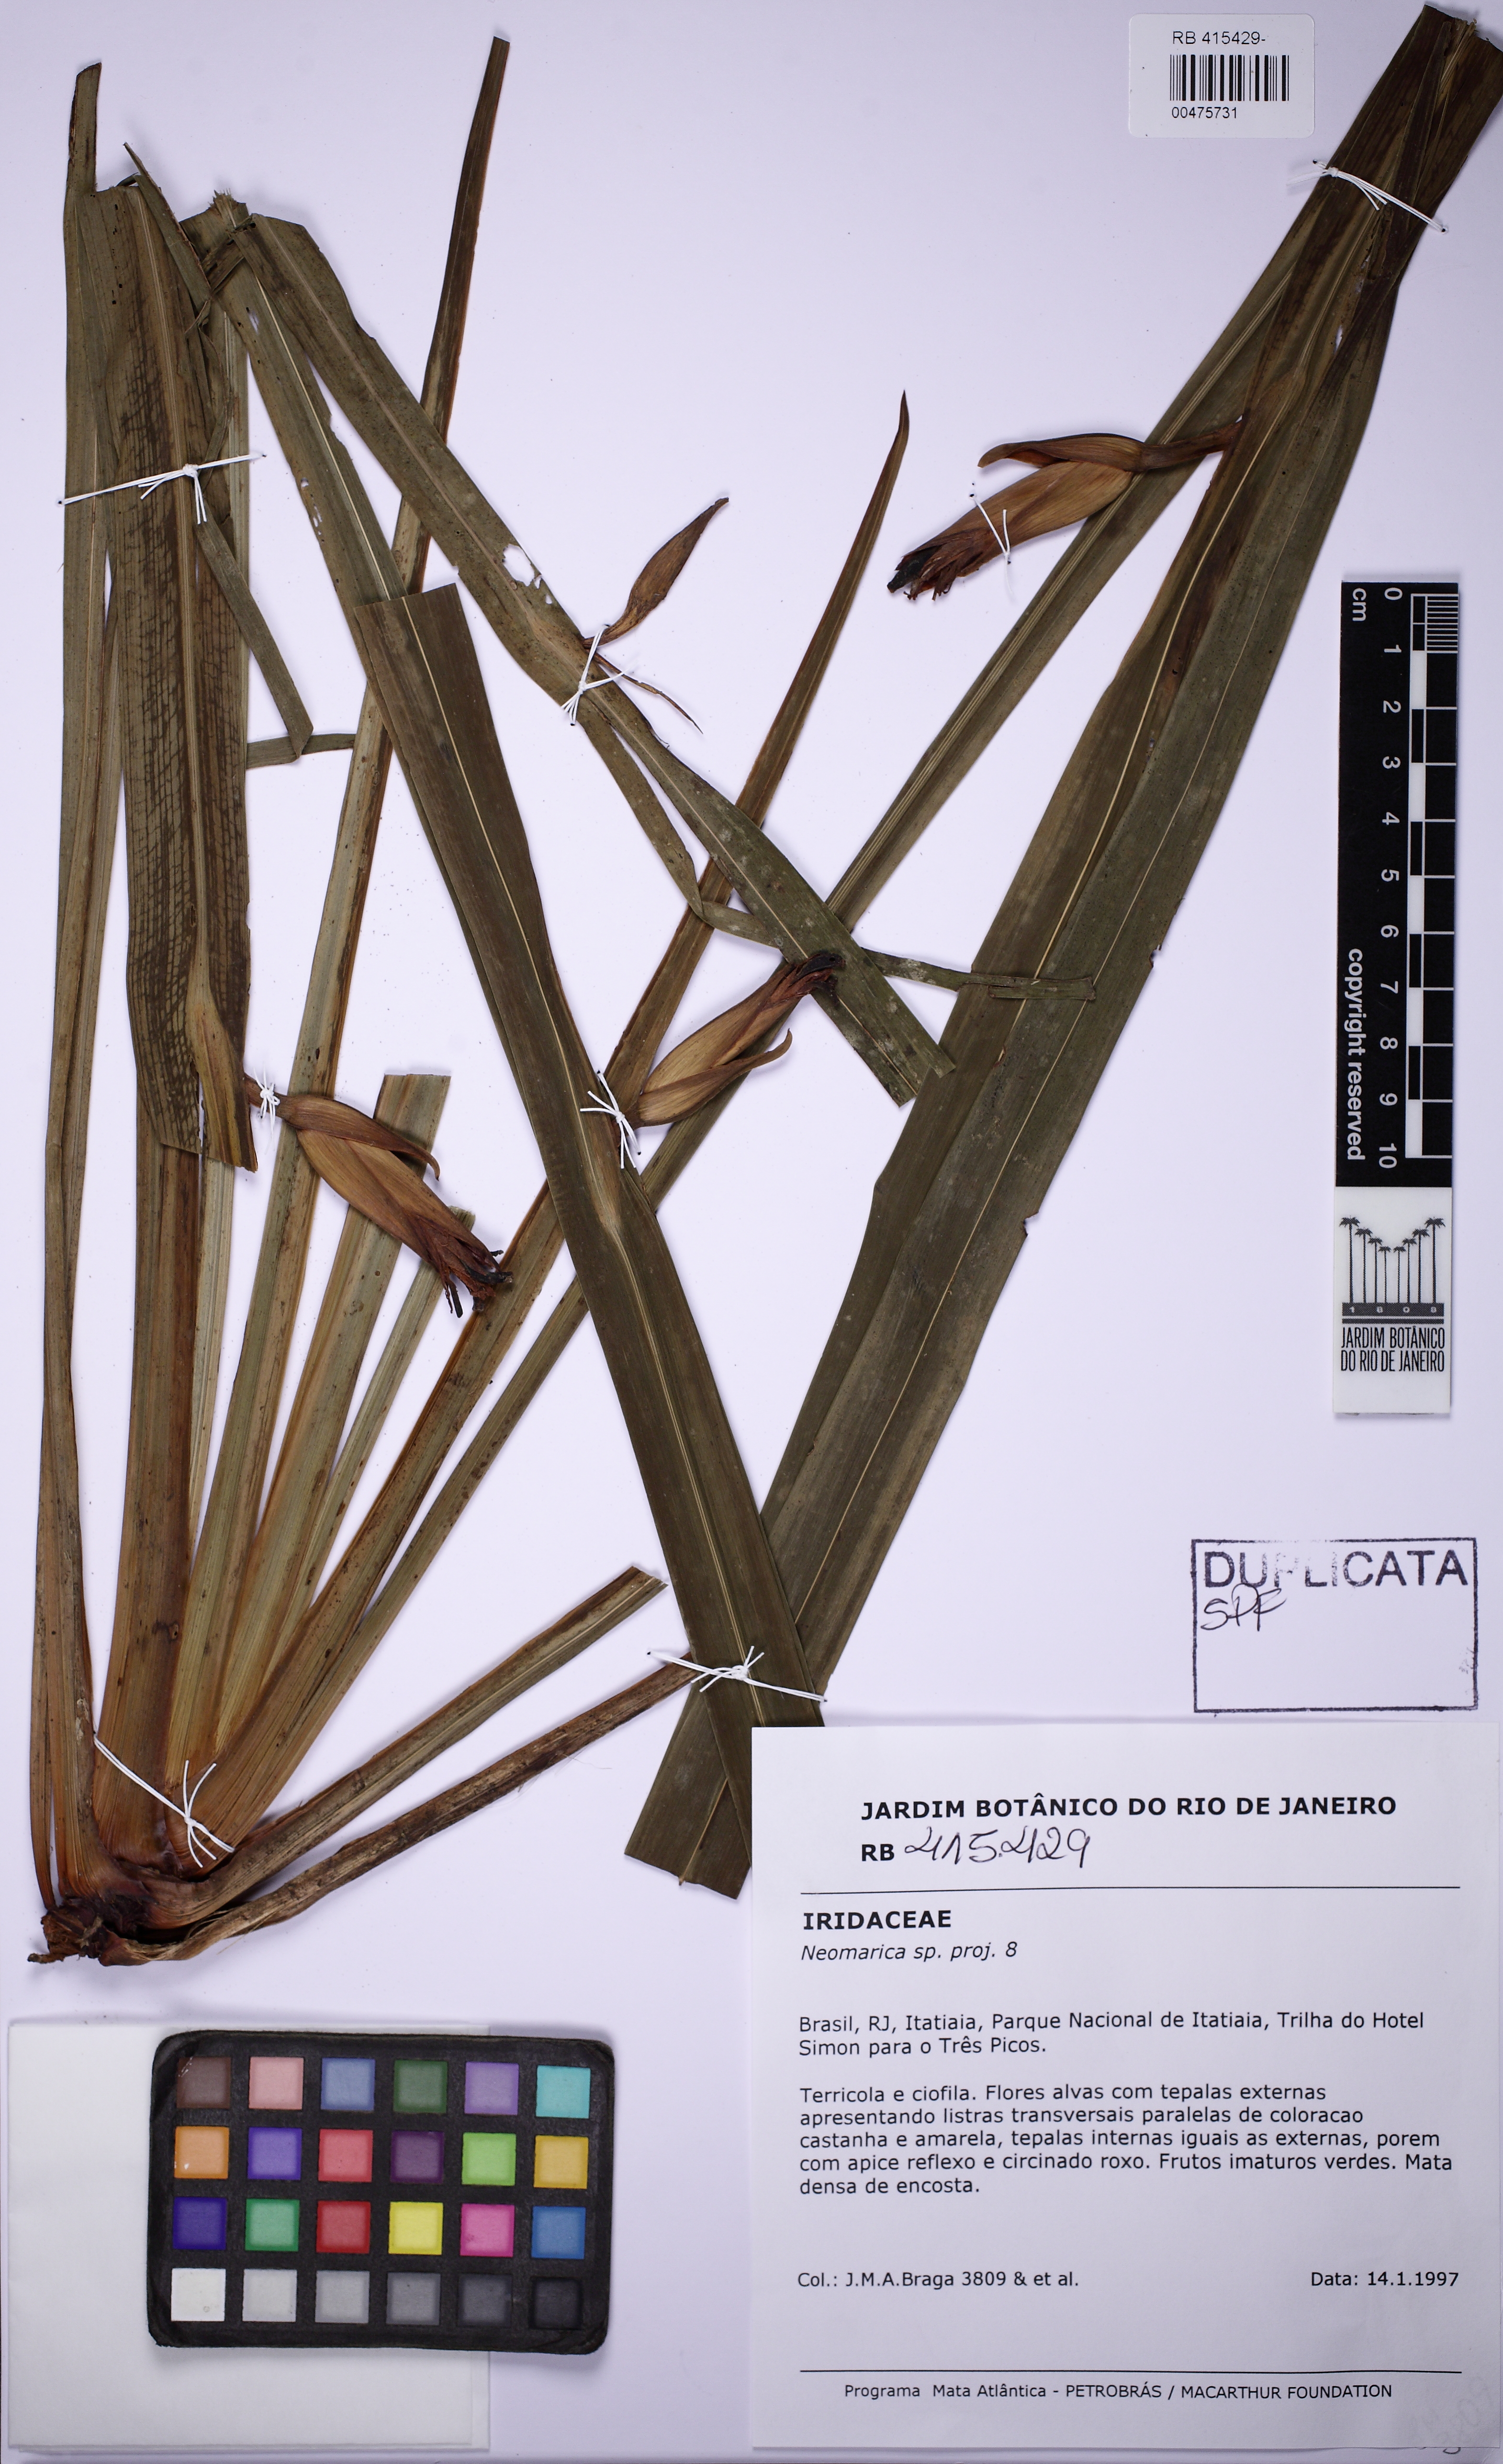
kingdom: Plantae
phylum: Tracheophyta
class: Liliopsida
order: Asparagales
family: Iridaceae
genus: Trimezia
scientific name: Trimezia
